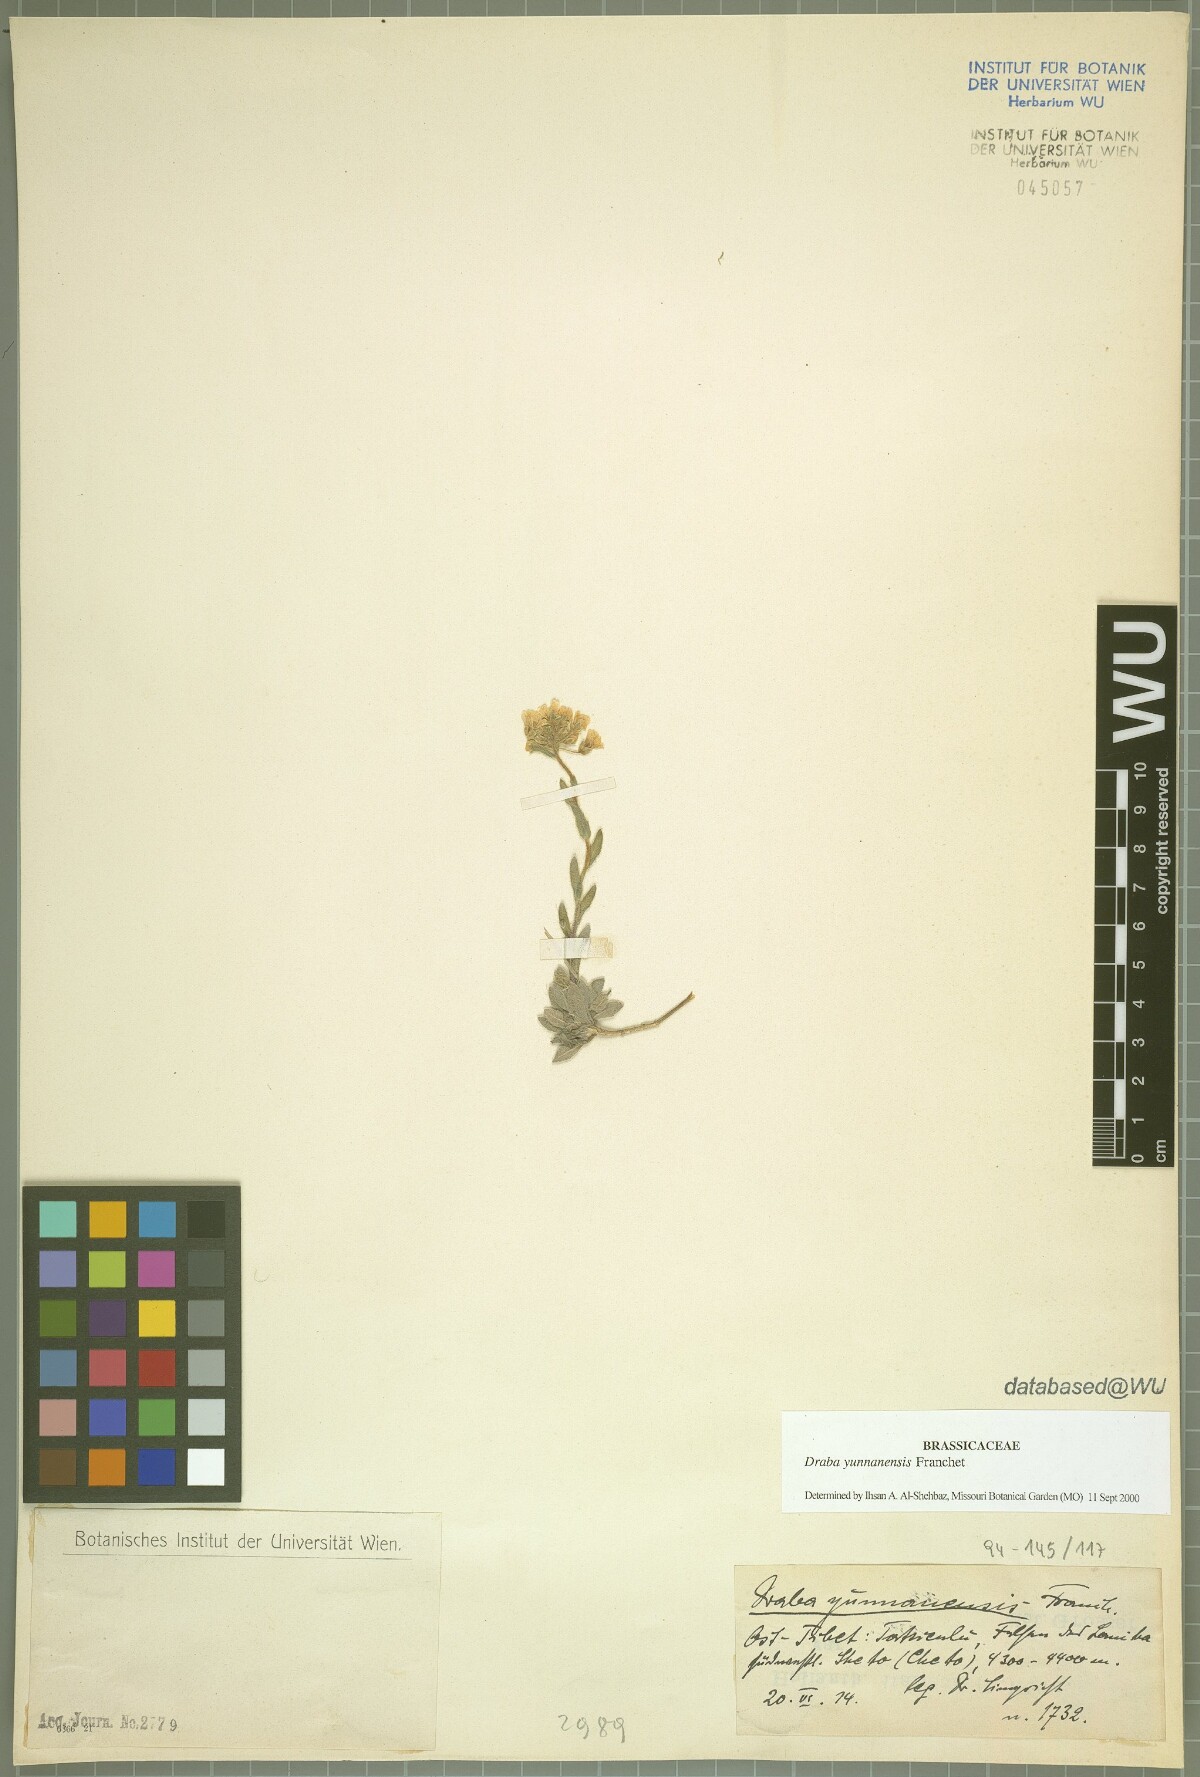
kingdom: Plantae
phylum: Tracheophyta
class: Magnoliopsida
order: Brassicales
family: Brassicaceae
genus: Draba
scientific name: Draba yunnanensis
